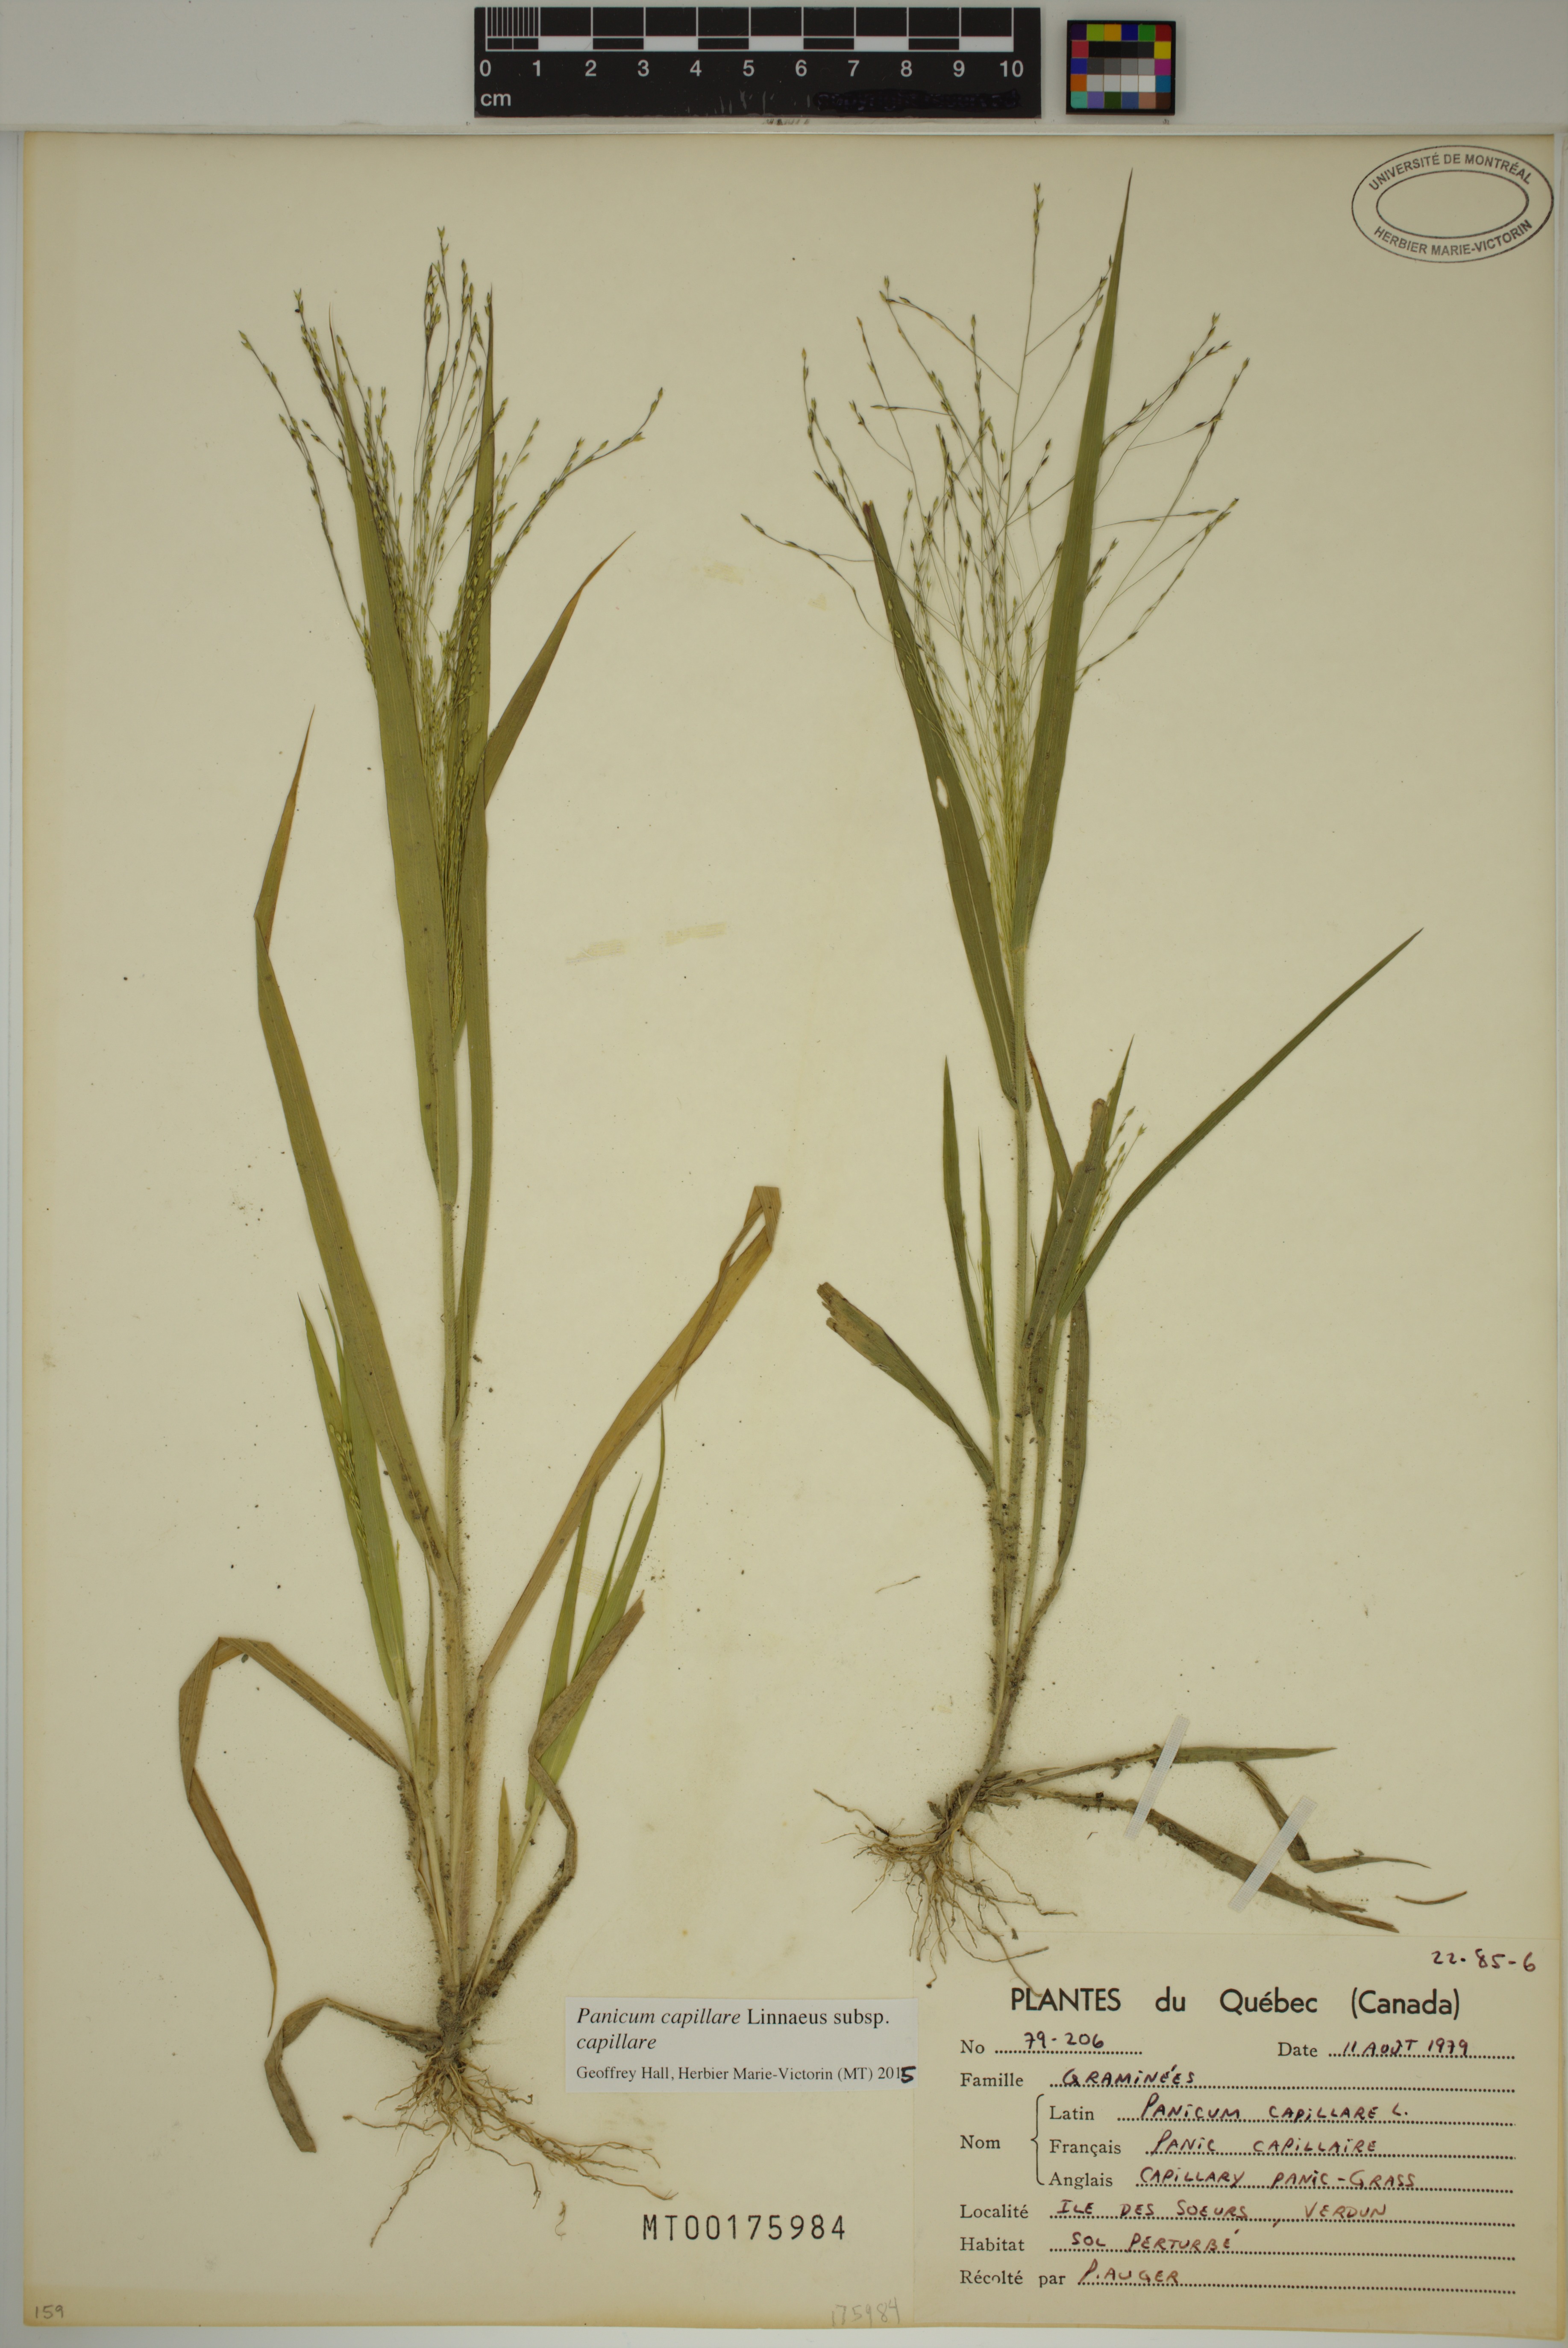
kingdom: Plantae
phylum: Tracheophyta
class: Liliopsida
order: Poales
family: Poaceae
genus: Panicum
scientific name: Panicum capillare
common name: Witch-grass
